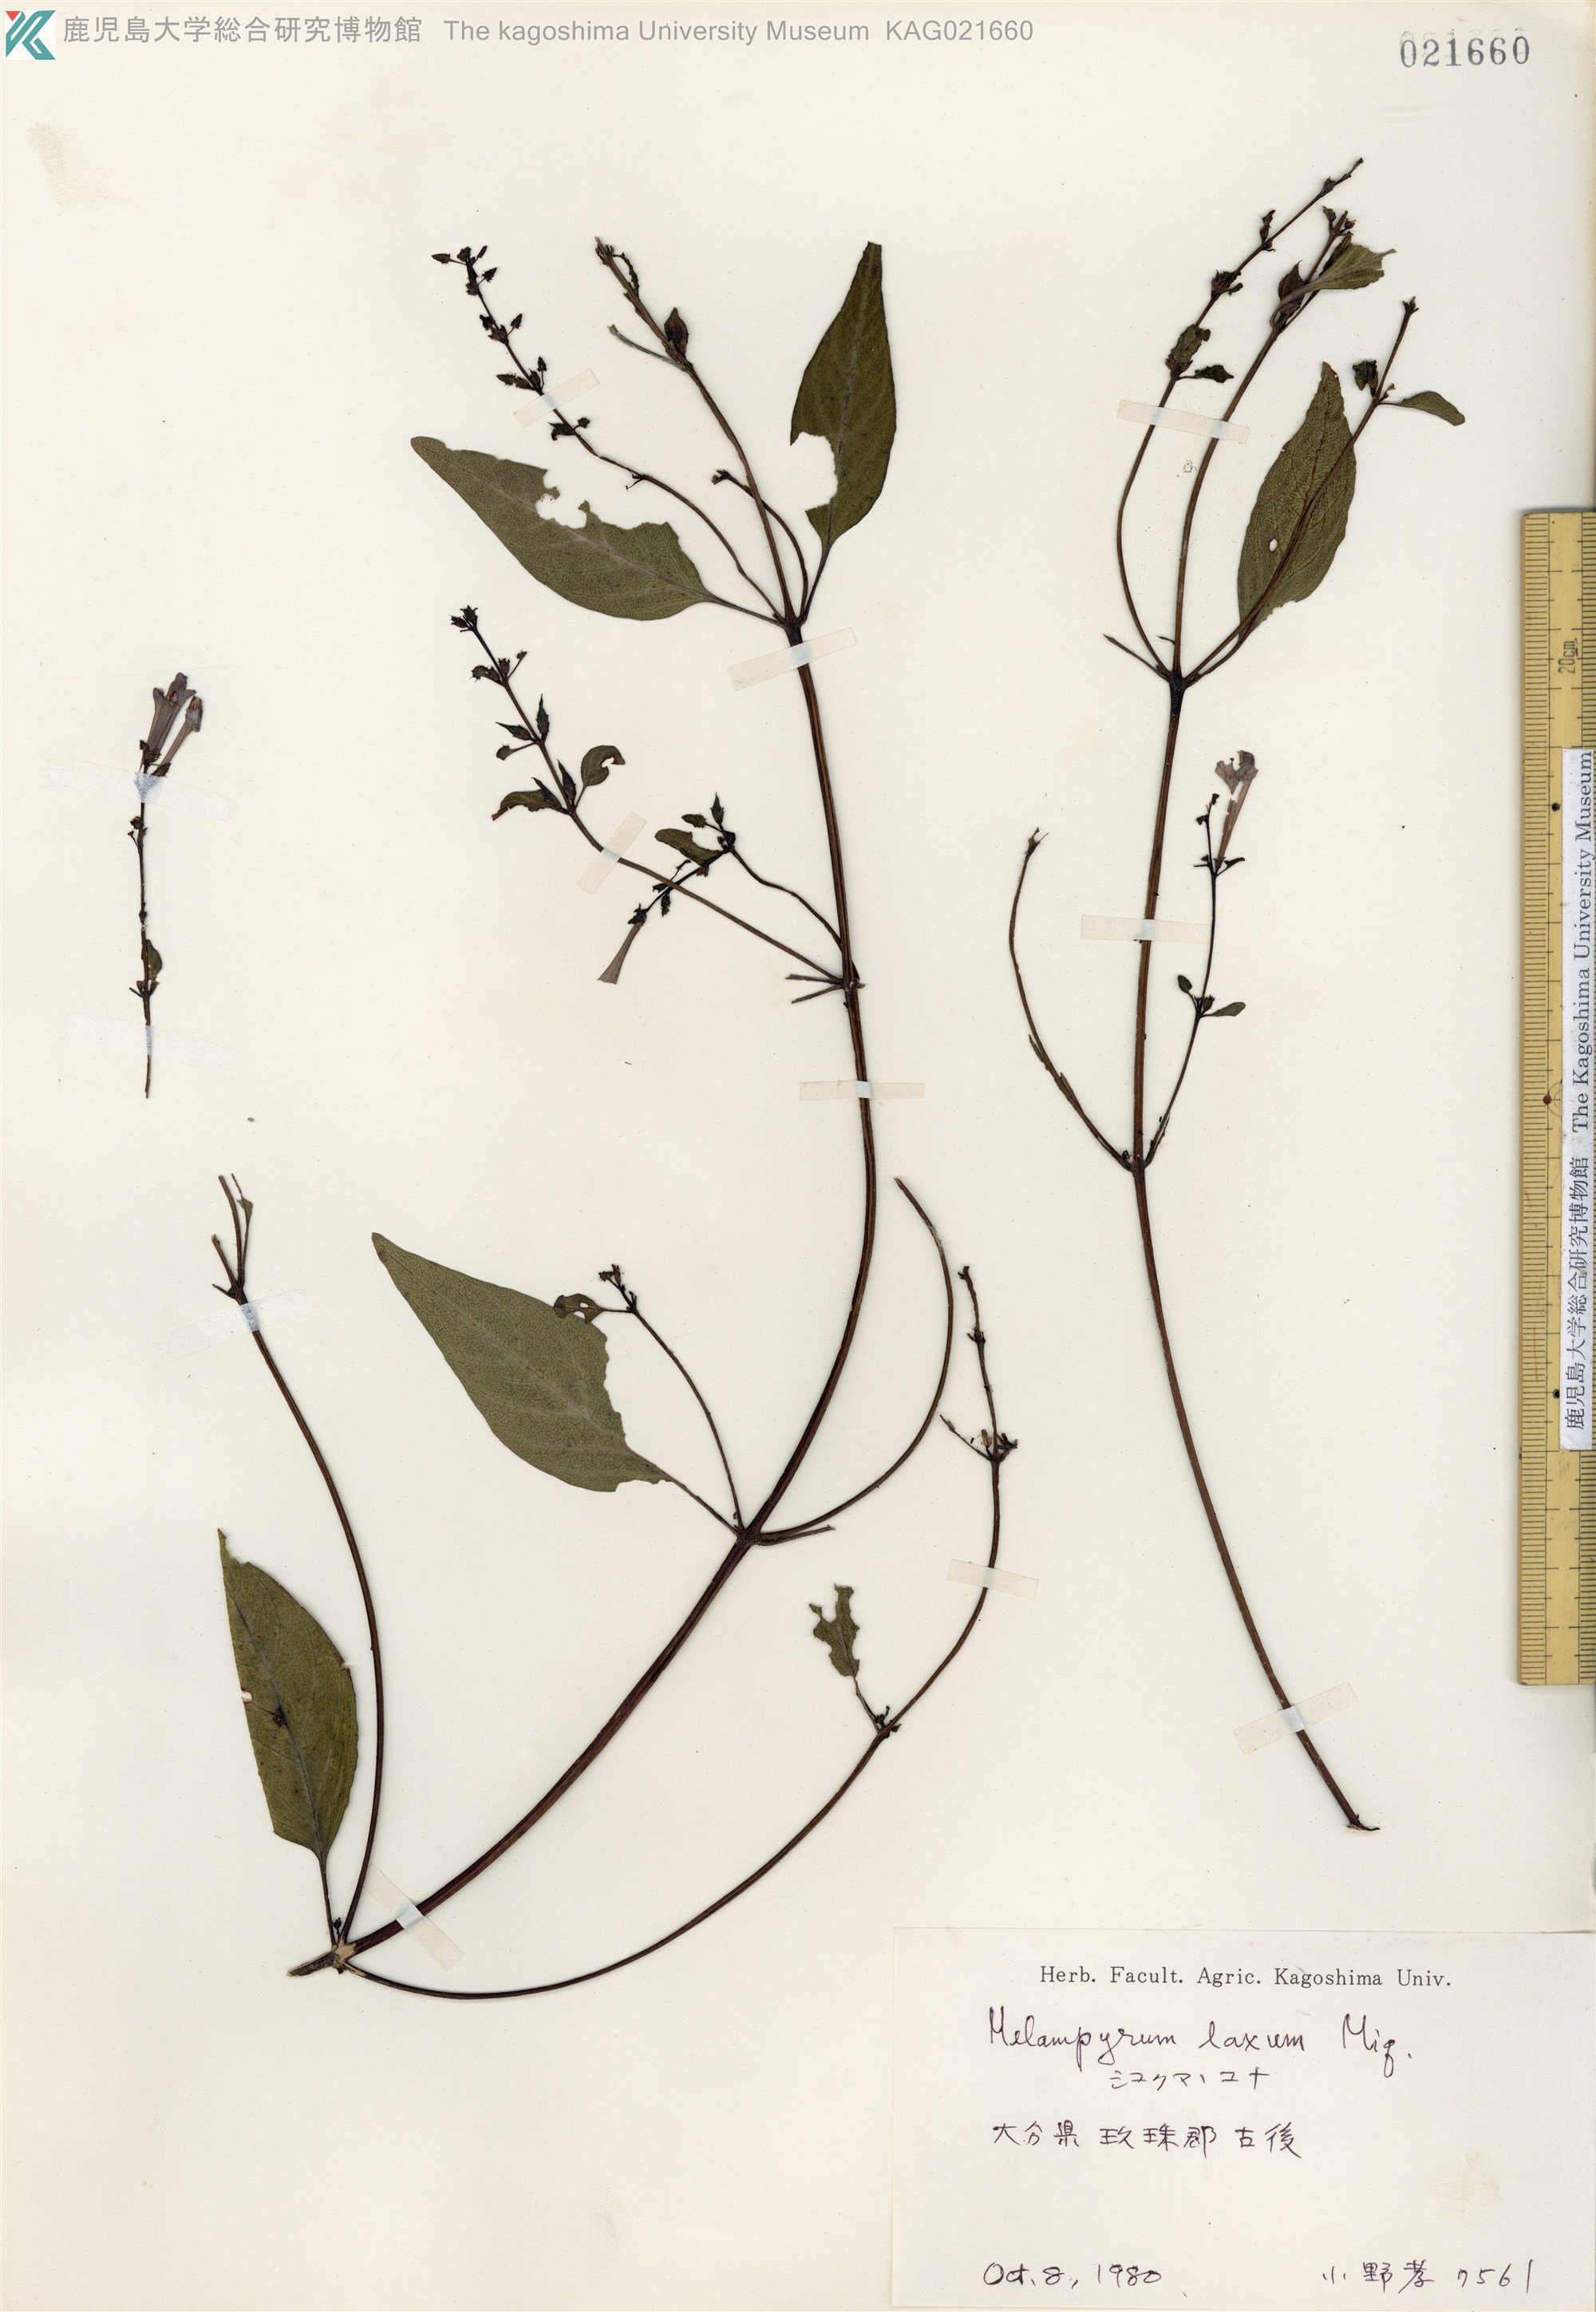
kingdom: Plantae
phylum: Tracheophyta
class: Magnoliopsida
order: Lamiales
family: Orobanchaceae
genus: Melampyrum
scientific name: Melampyrum laxum
